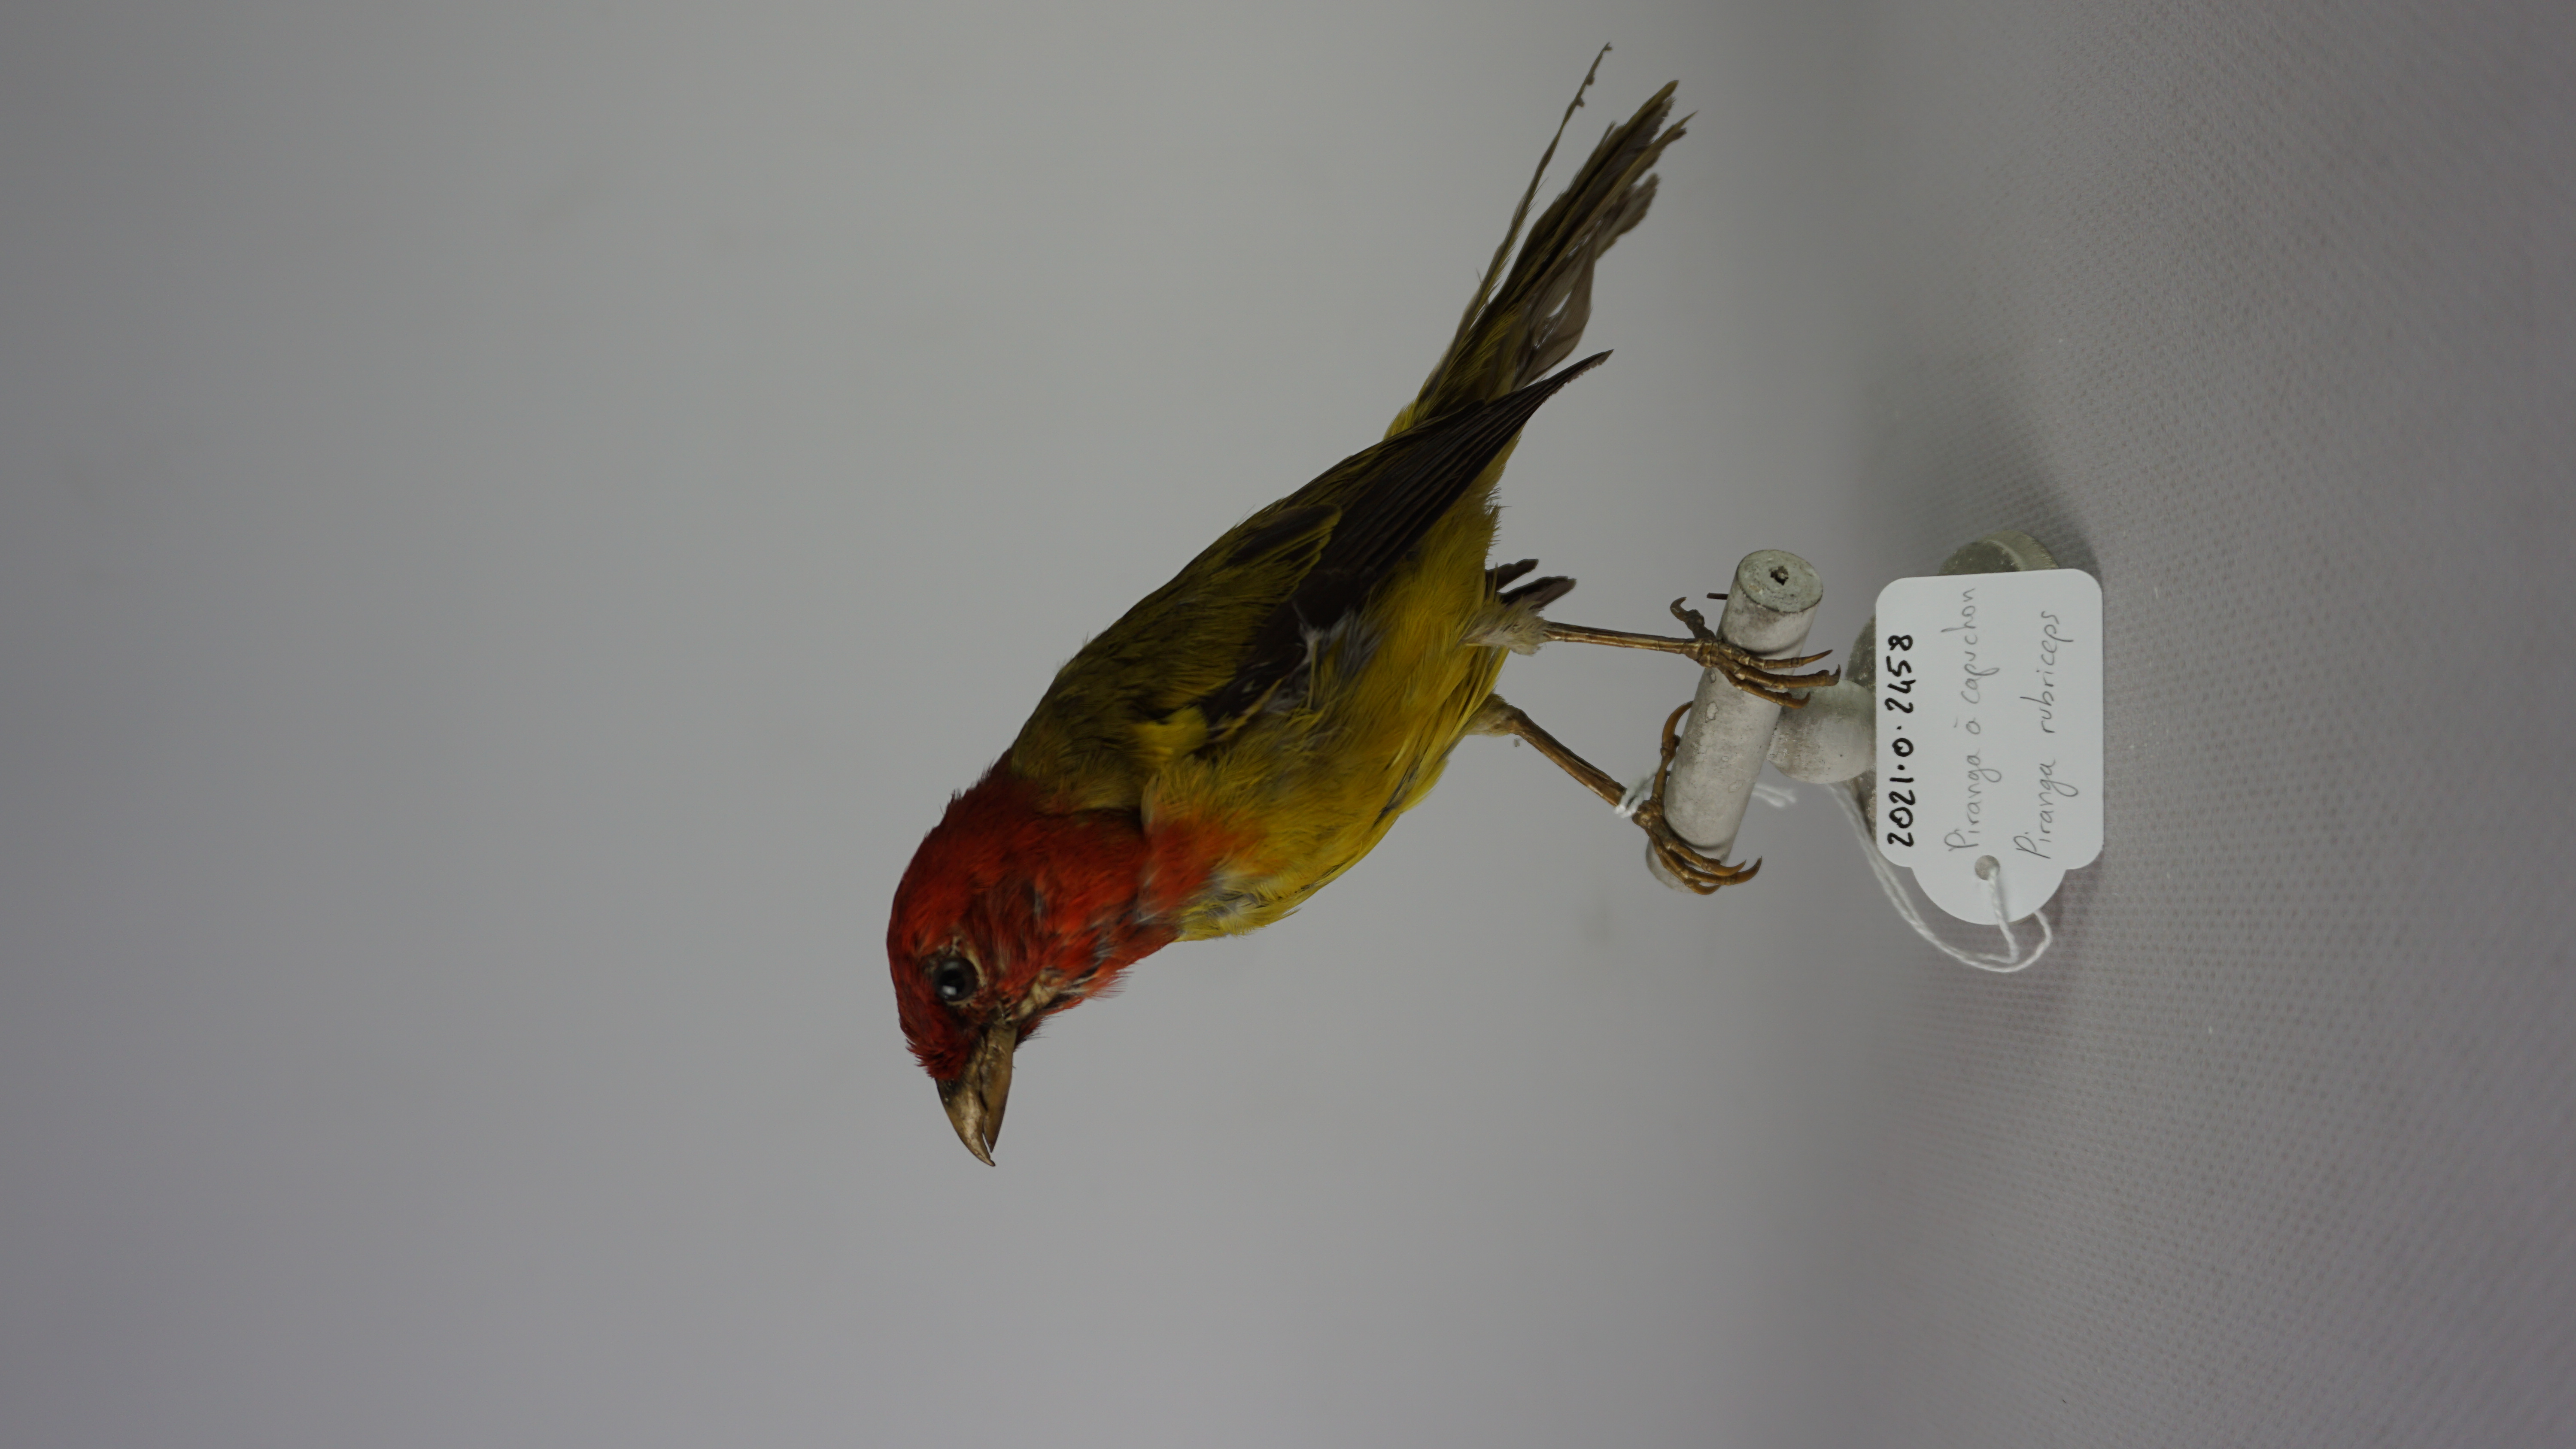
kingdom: Animalia
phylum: Chordata
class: Aves
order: Passeriformes
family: Cardinalidae
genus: Piranga
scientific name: Piranga rubriceps
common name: Red-hooded tanager
